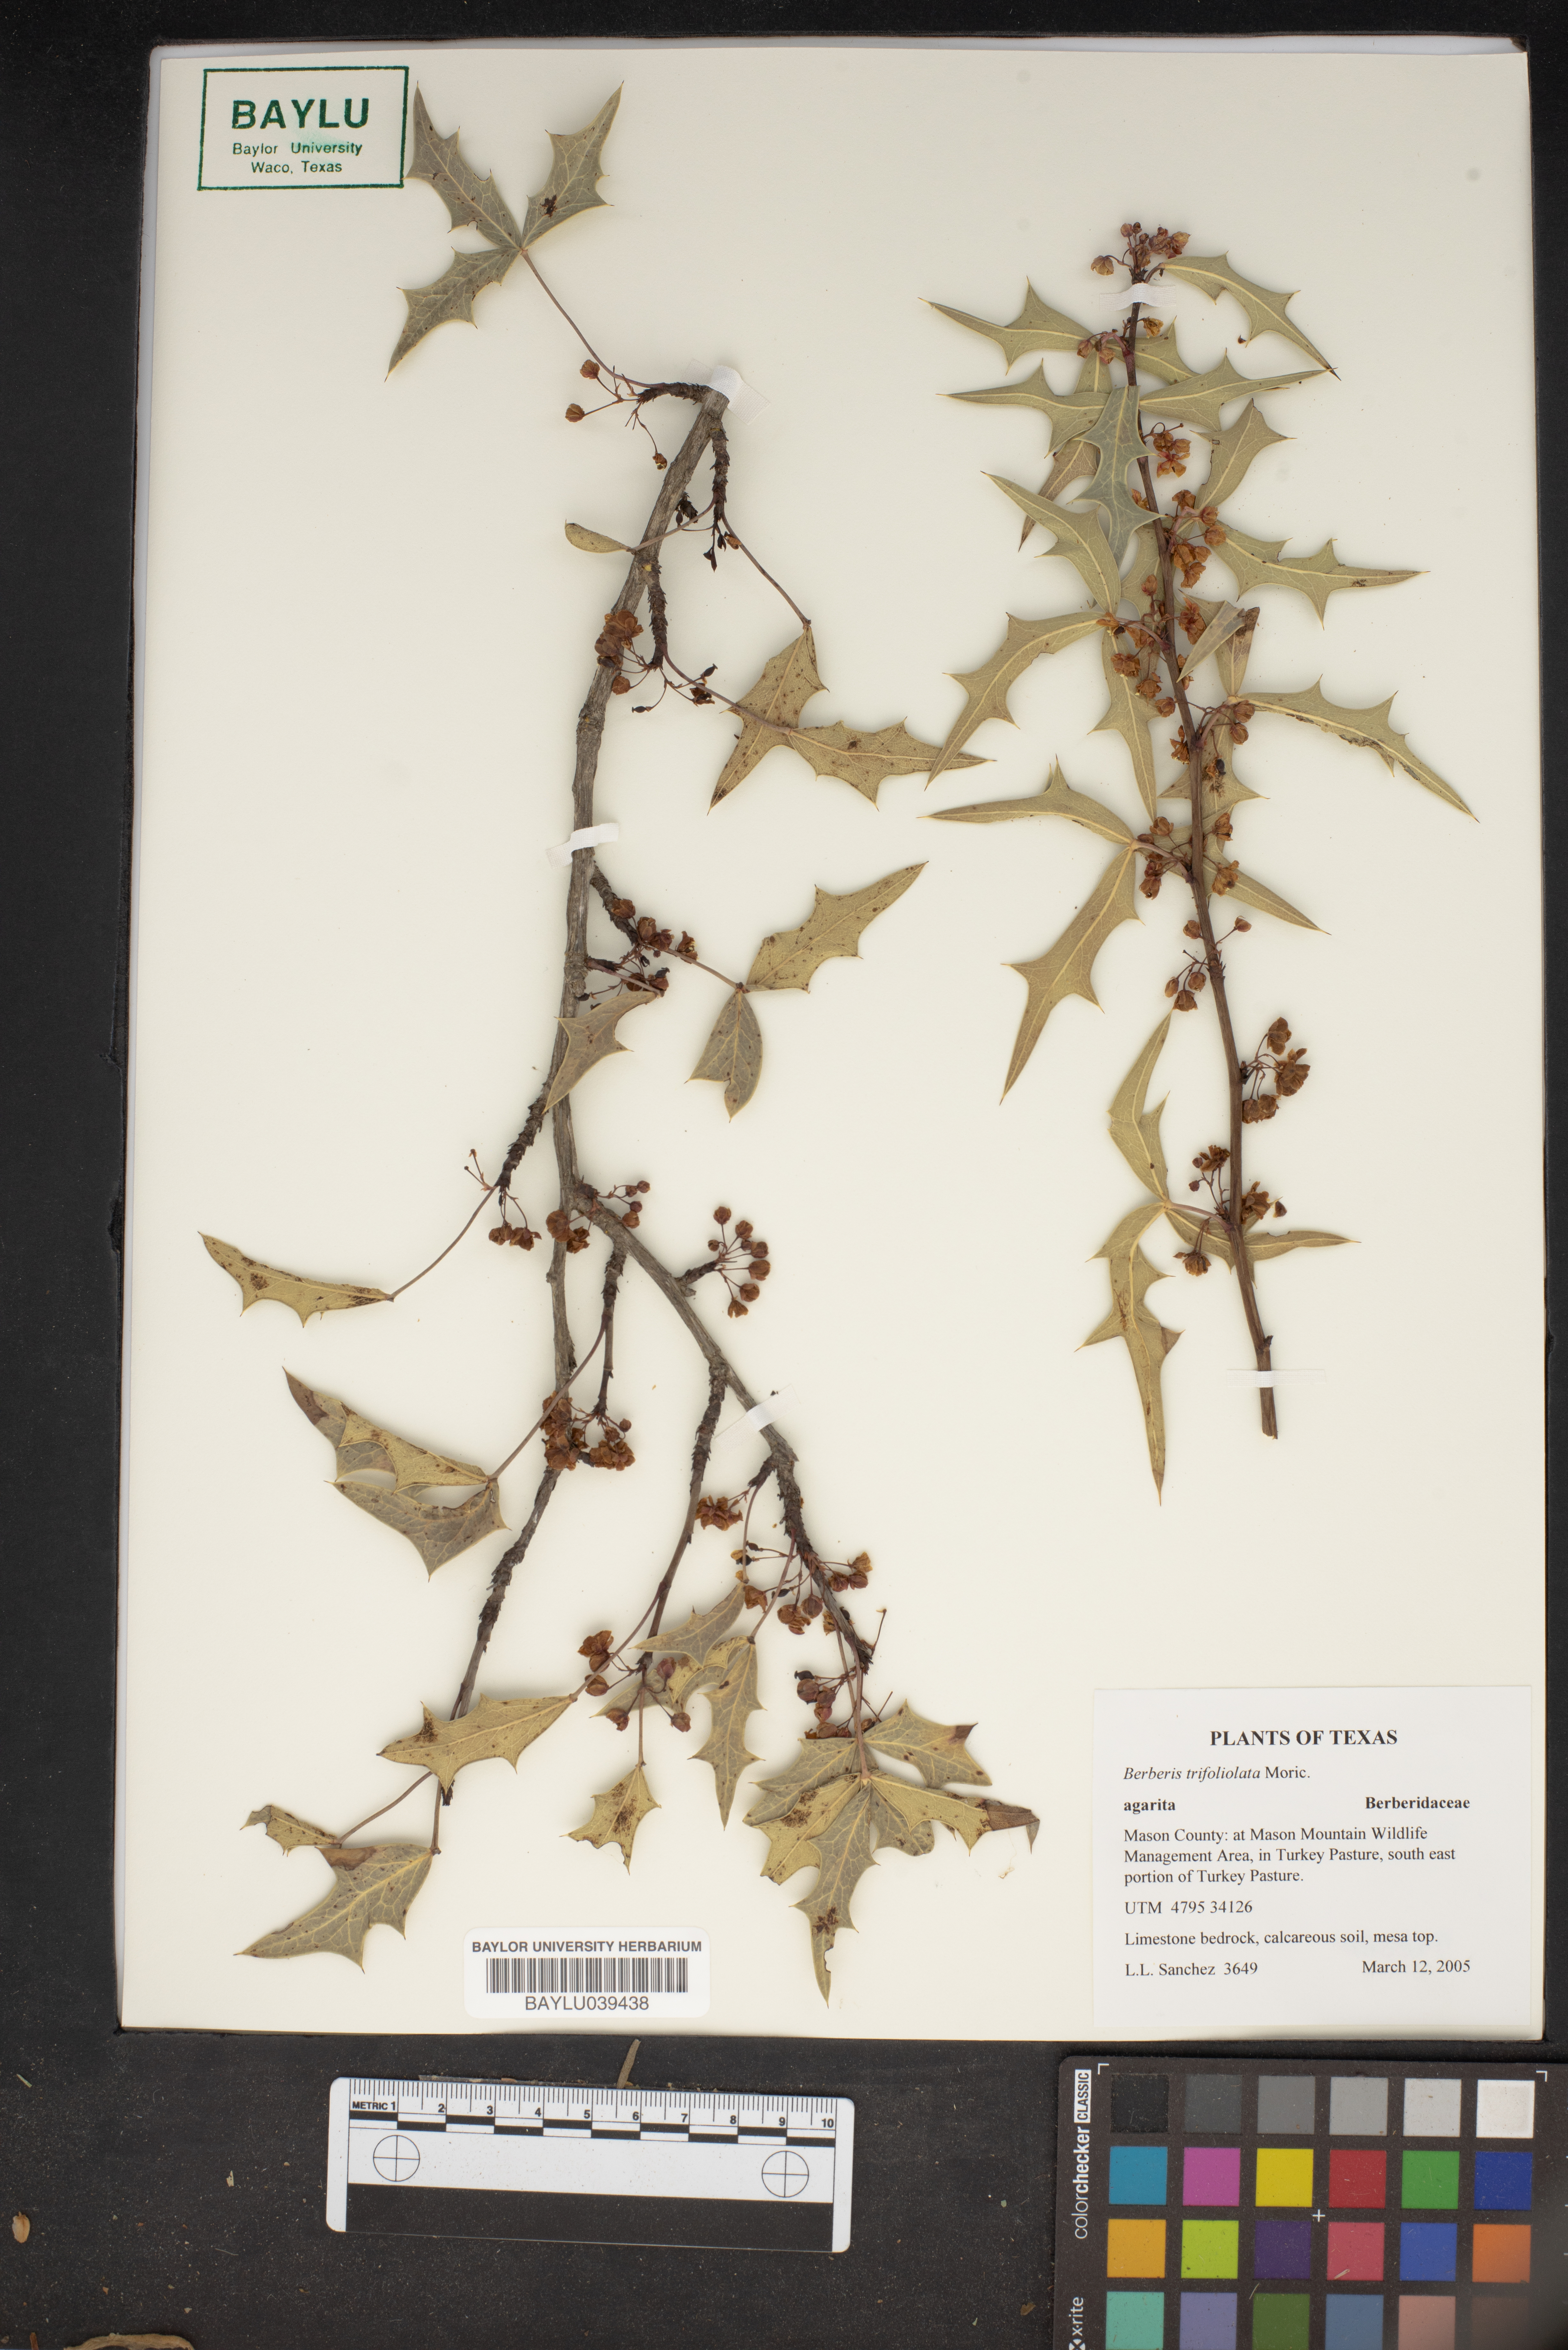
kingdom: Plantae
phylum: Tracheophyta
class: Magnoliopsida
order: Ranunculales
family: Berberidaceae
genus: Alloberberis
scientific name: Alloberberis fremontii
